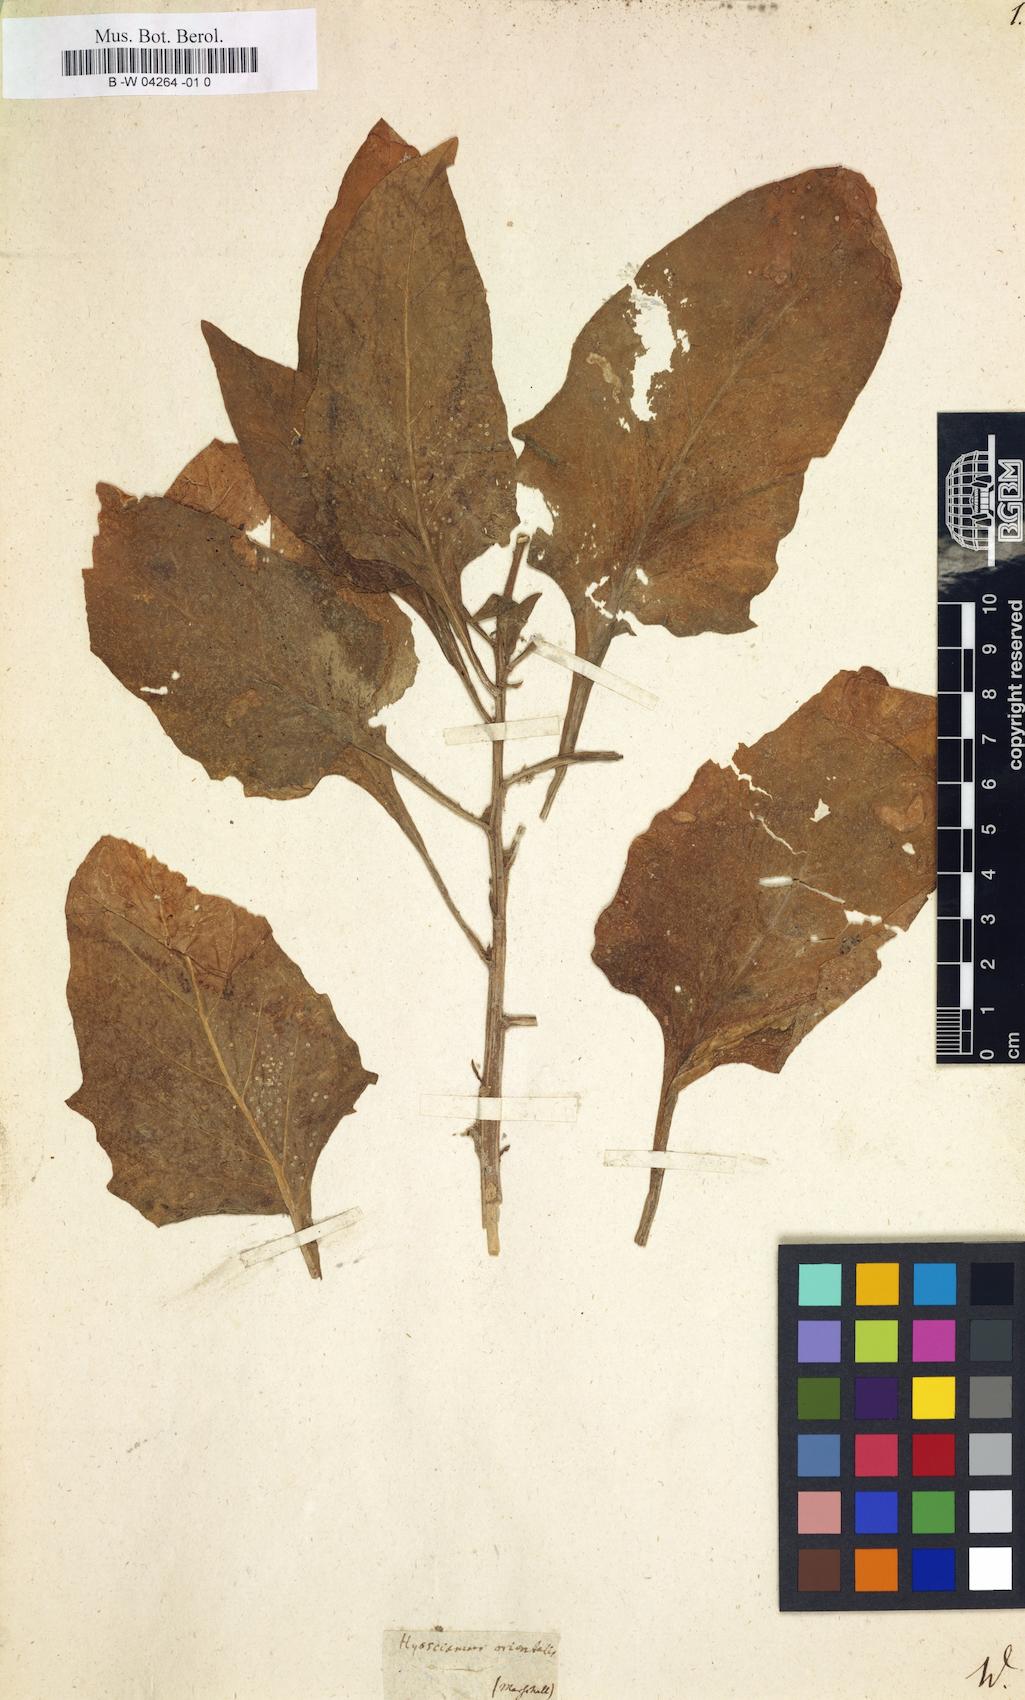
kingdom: Plantae
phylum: Tracheophyta
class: Magnoliopsida
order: Solanales
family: Solanaceae
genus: Physochlaina
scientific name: Physochlaina orientalis
